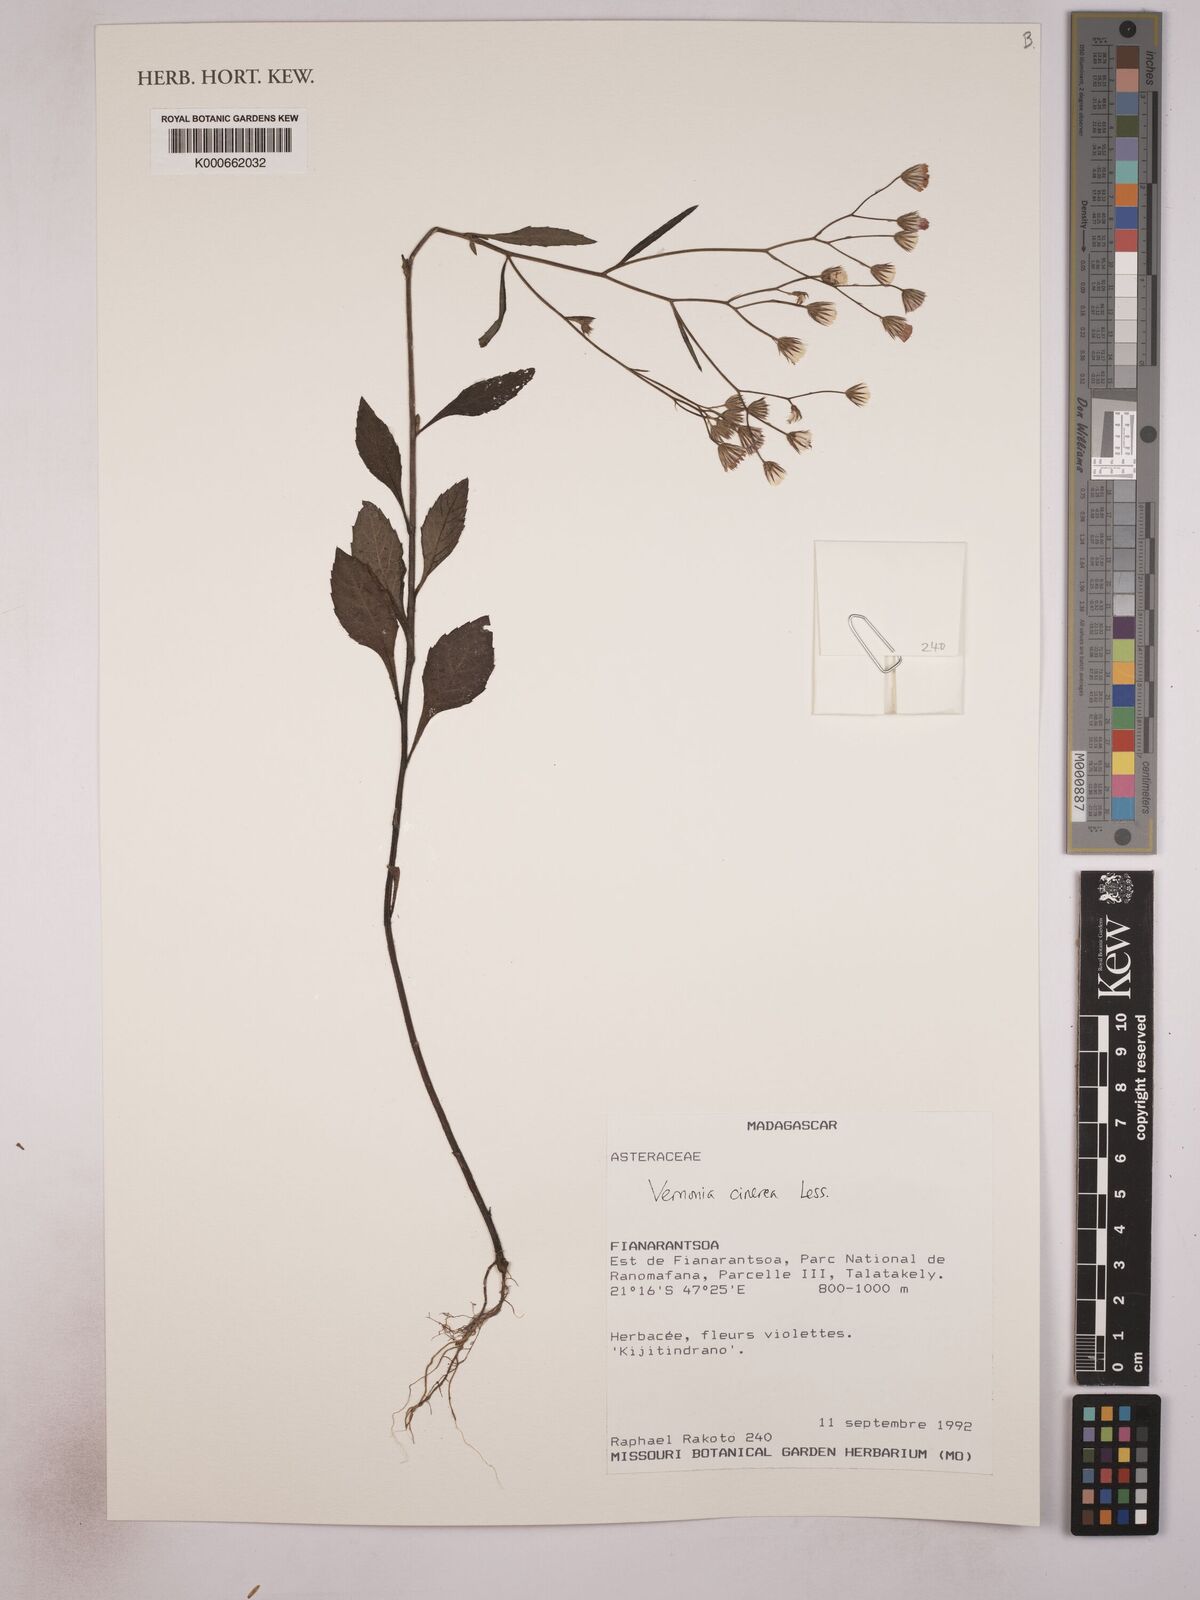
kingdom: Plantae
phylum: Tracheophyta
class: Magnoliopsida
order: Asterales
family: Asteraceae
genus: Cyanthillium
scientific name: Cyanthillium cinereum
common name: Little ironweed
